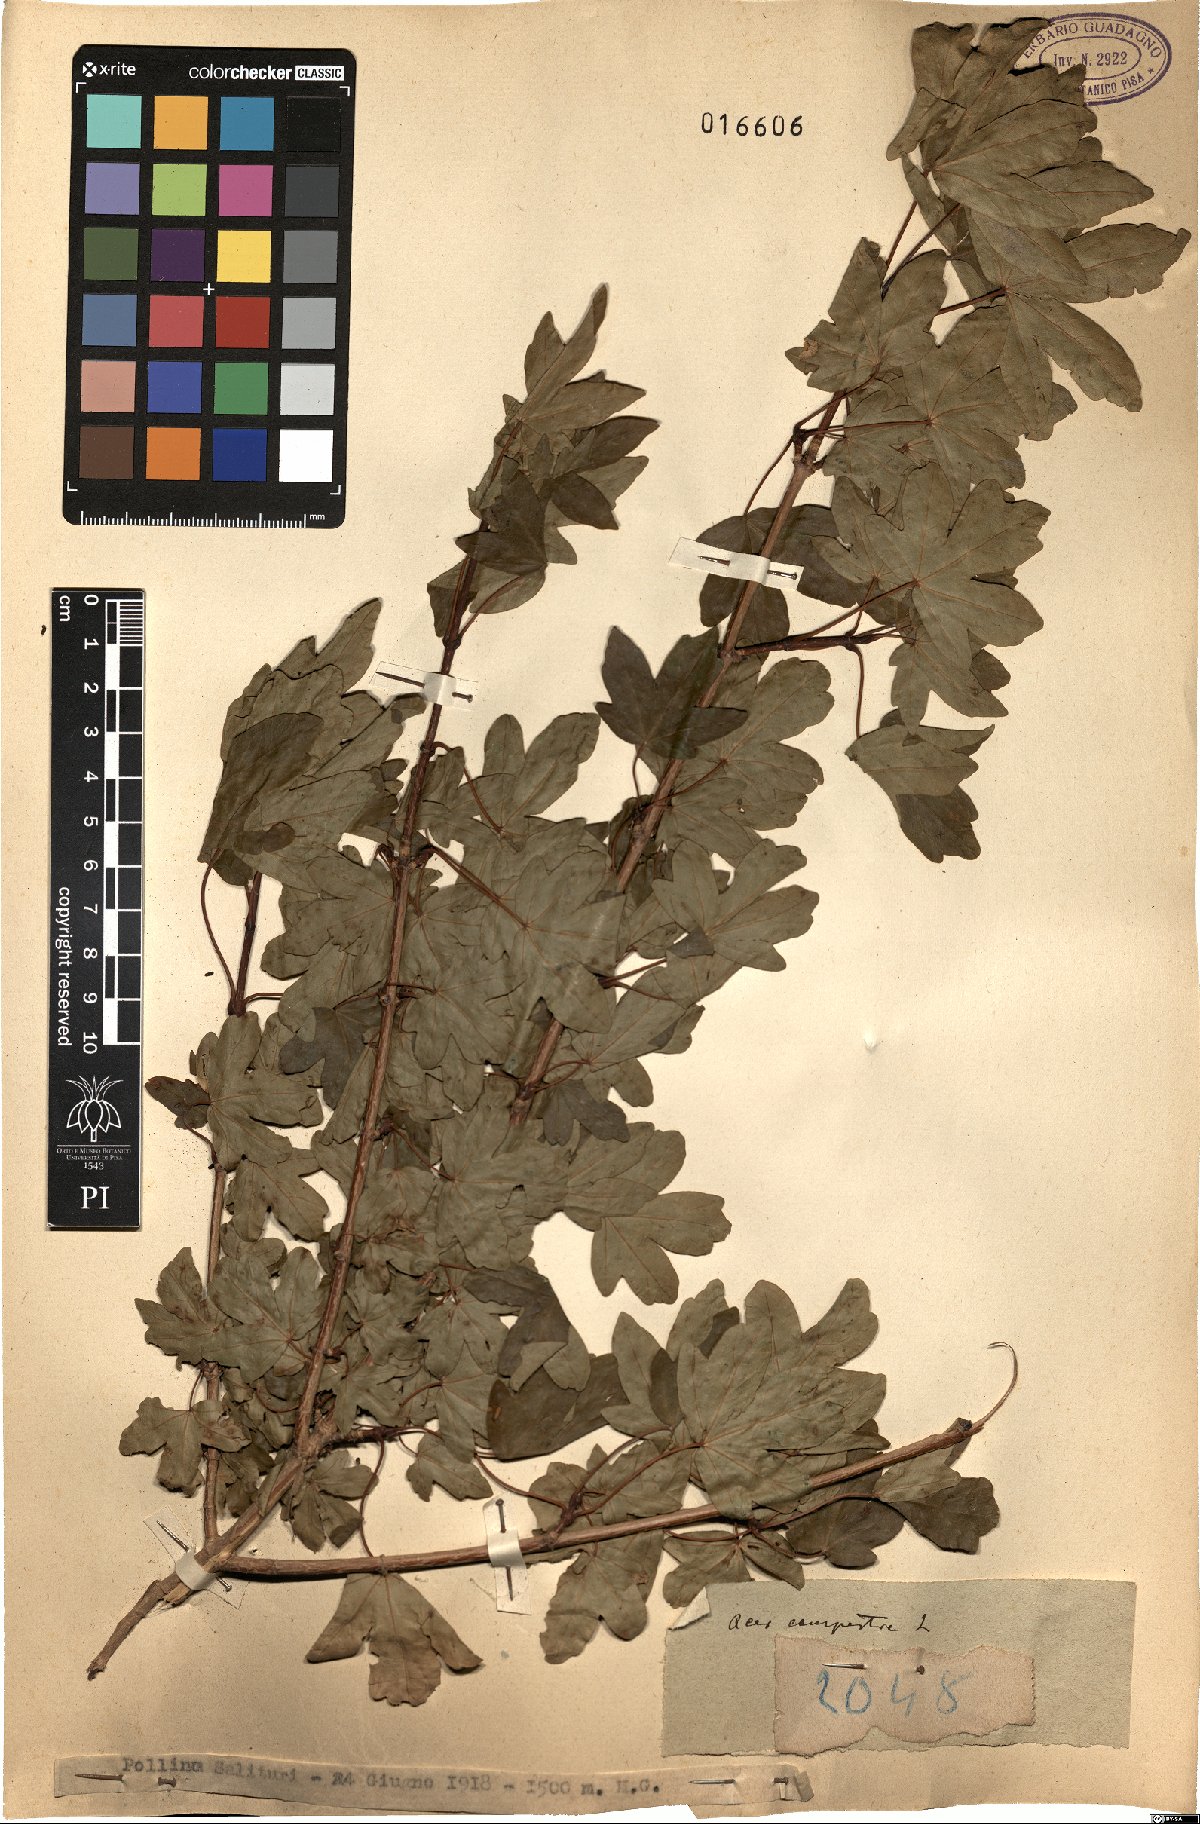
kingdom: Plantae
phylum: Tracheophyta
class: Magnoliopsida
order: Sapindales
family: Sapindaceae
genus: Acer
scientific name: Acer campestre
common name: Field maple
